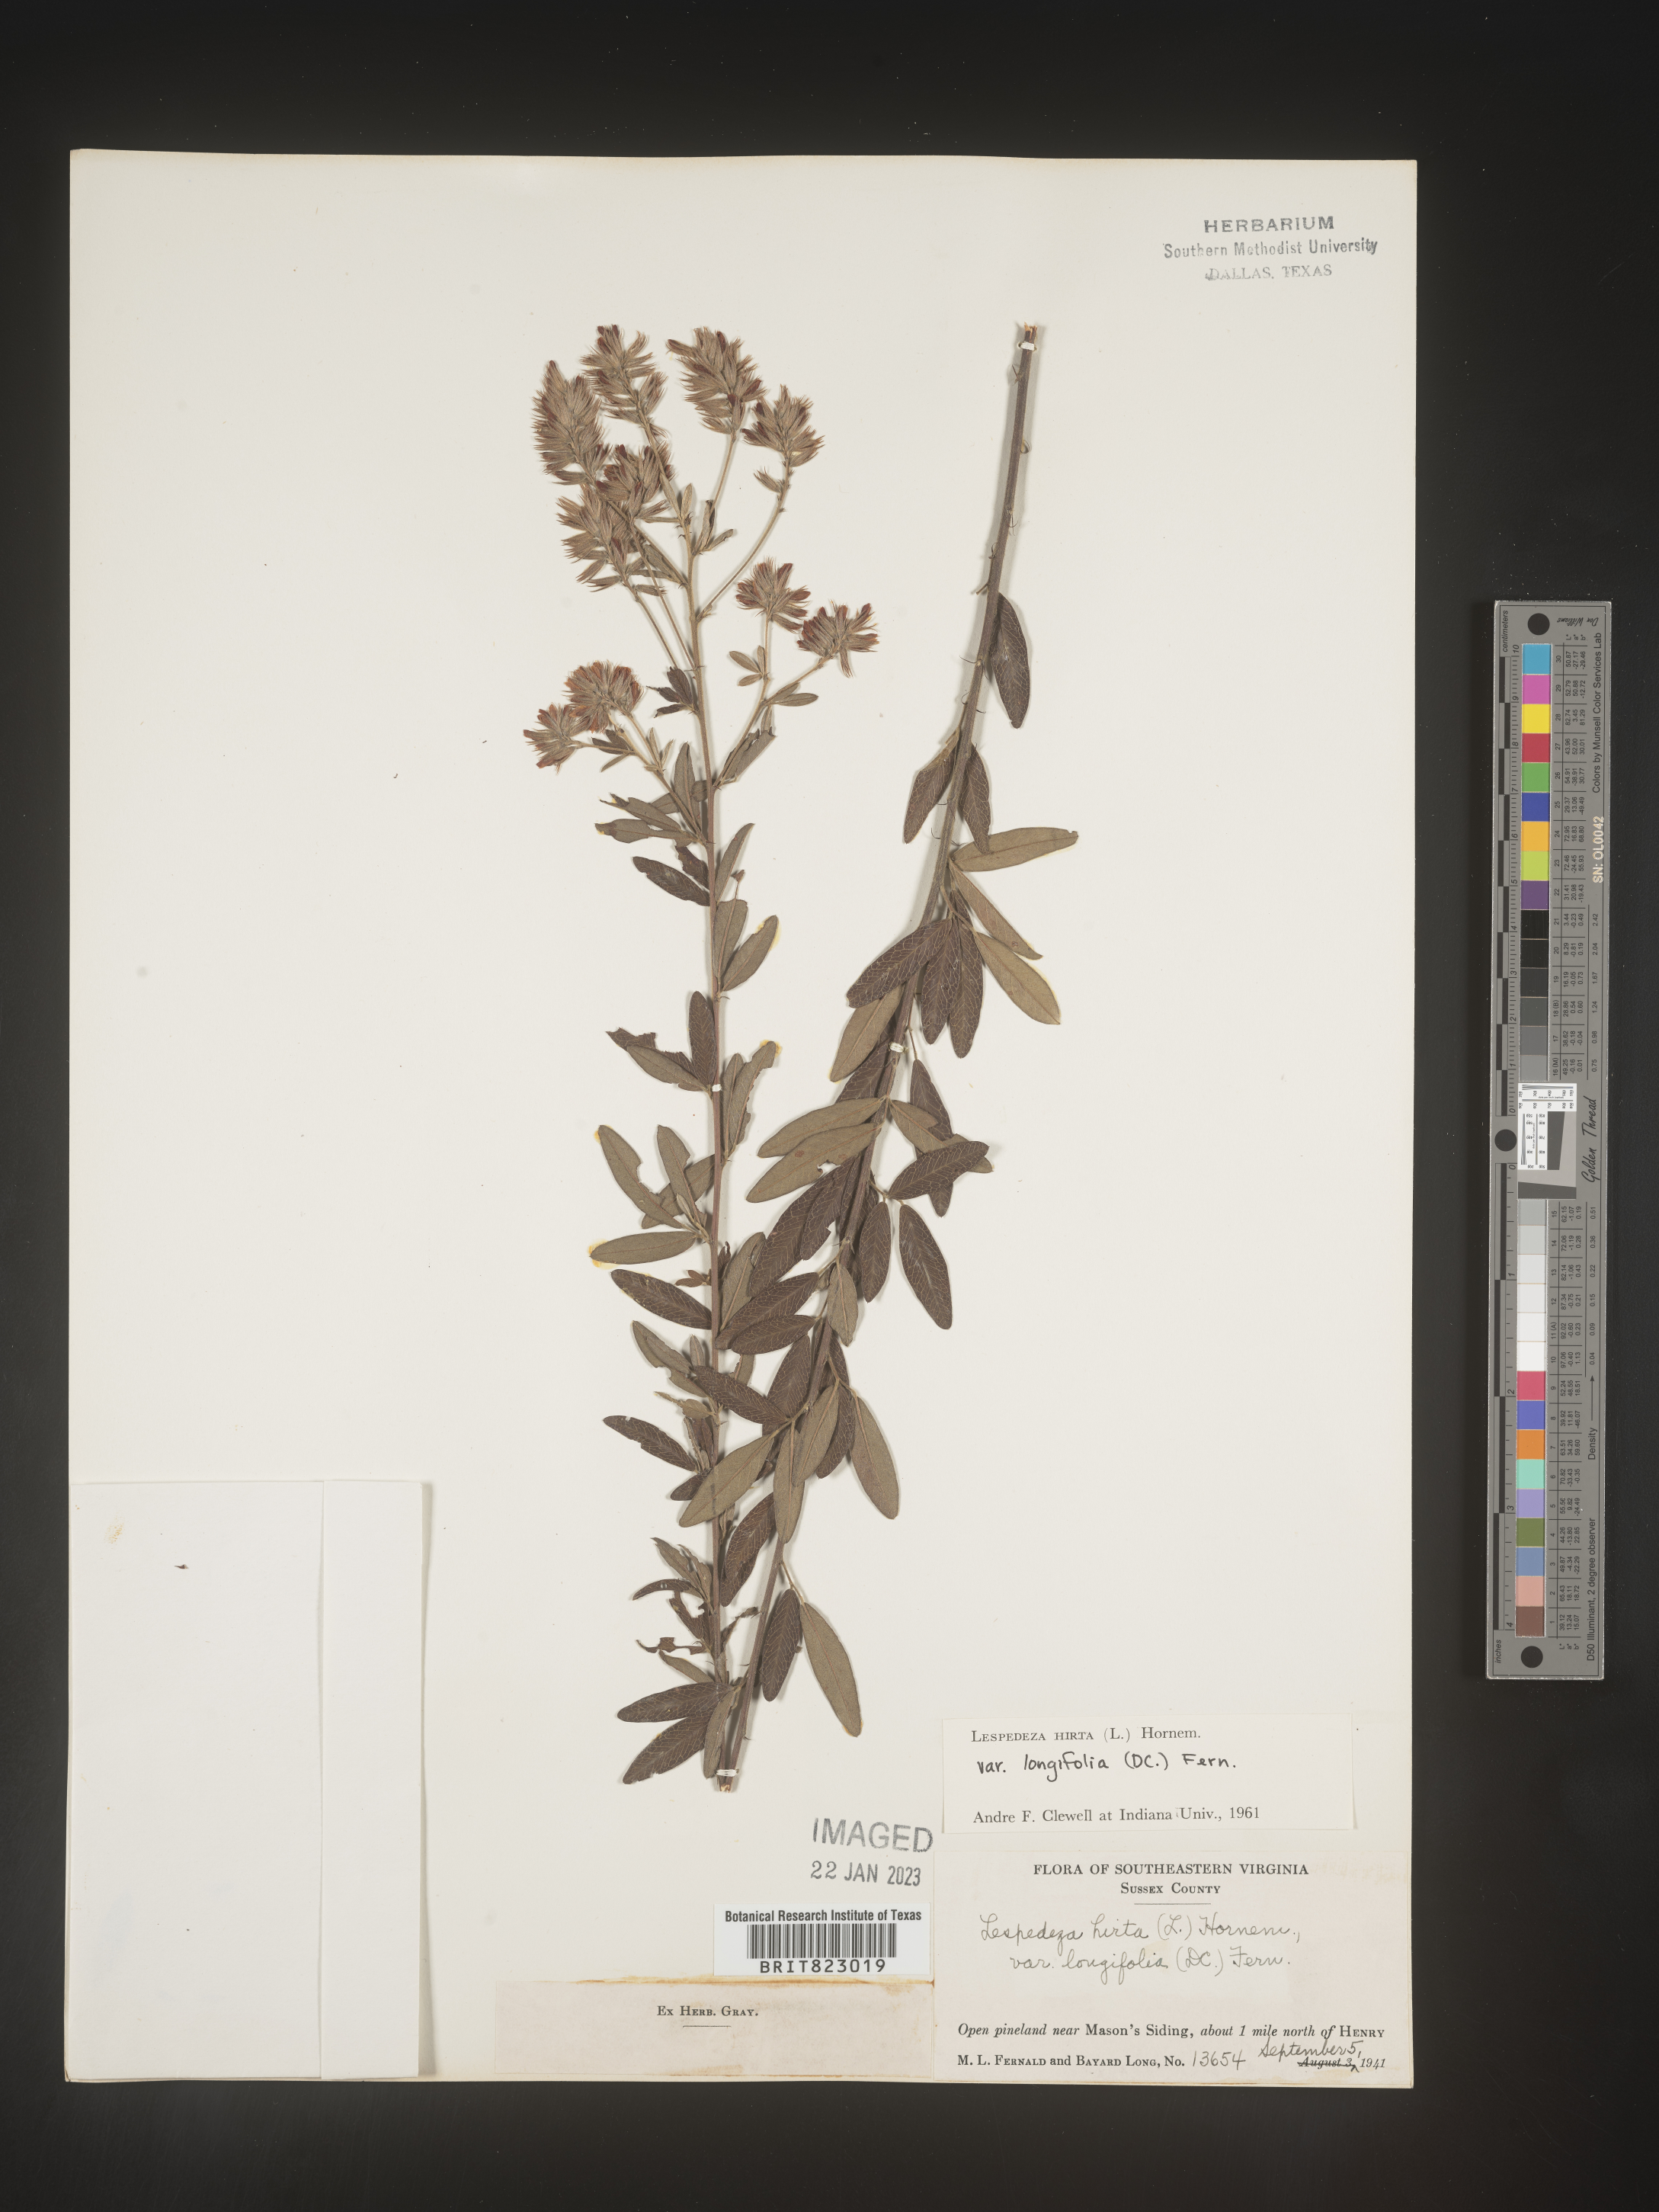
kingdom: Plantae
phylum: Tracheophyta
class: Magnoliopsida
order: Fabales
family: Fabaceae
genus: Lespedeza
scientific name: Lespedeza hirta
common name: Hairy lespedeza
